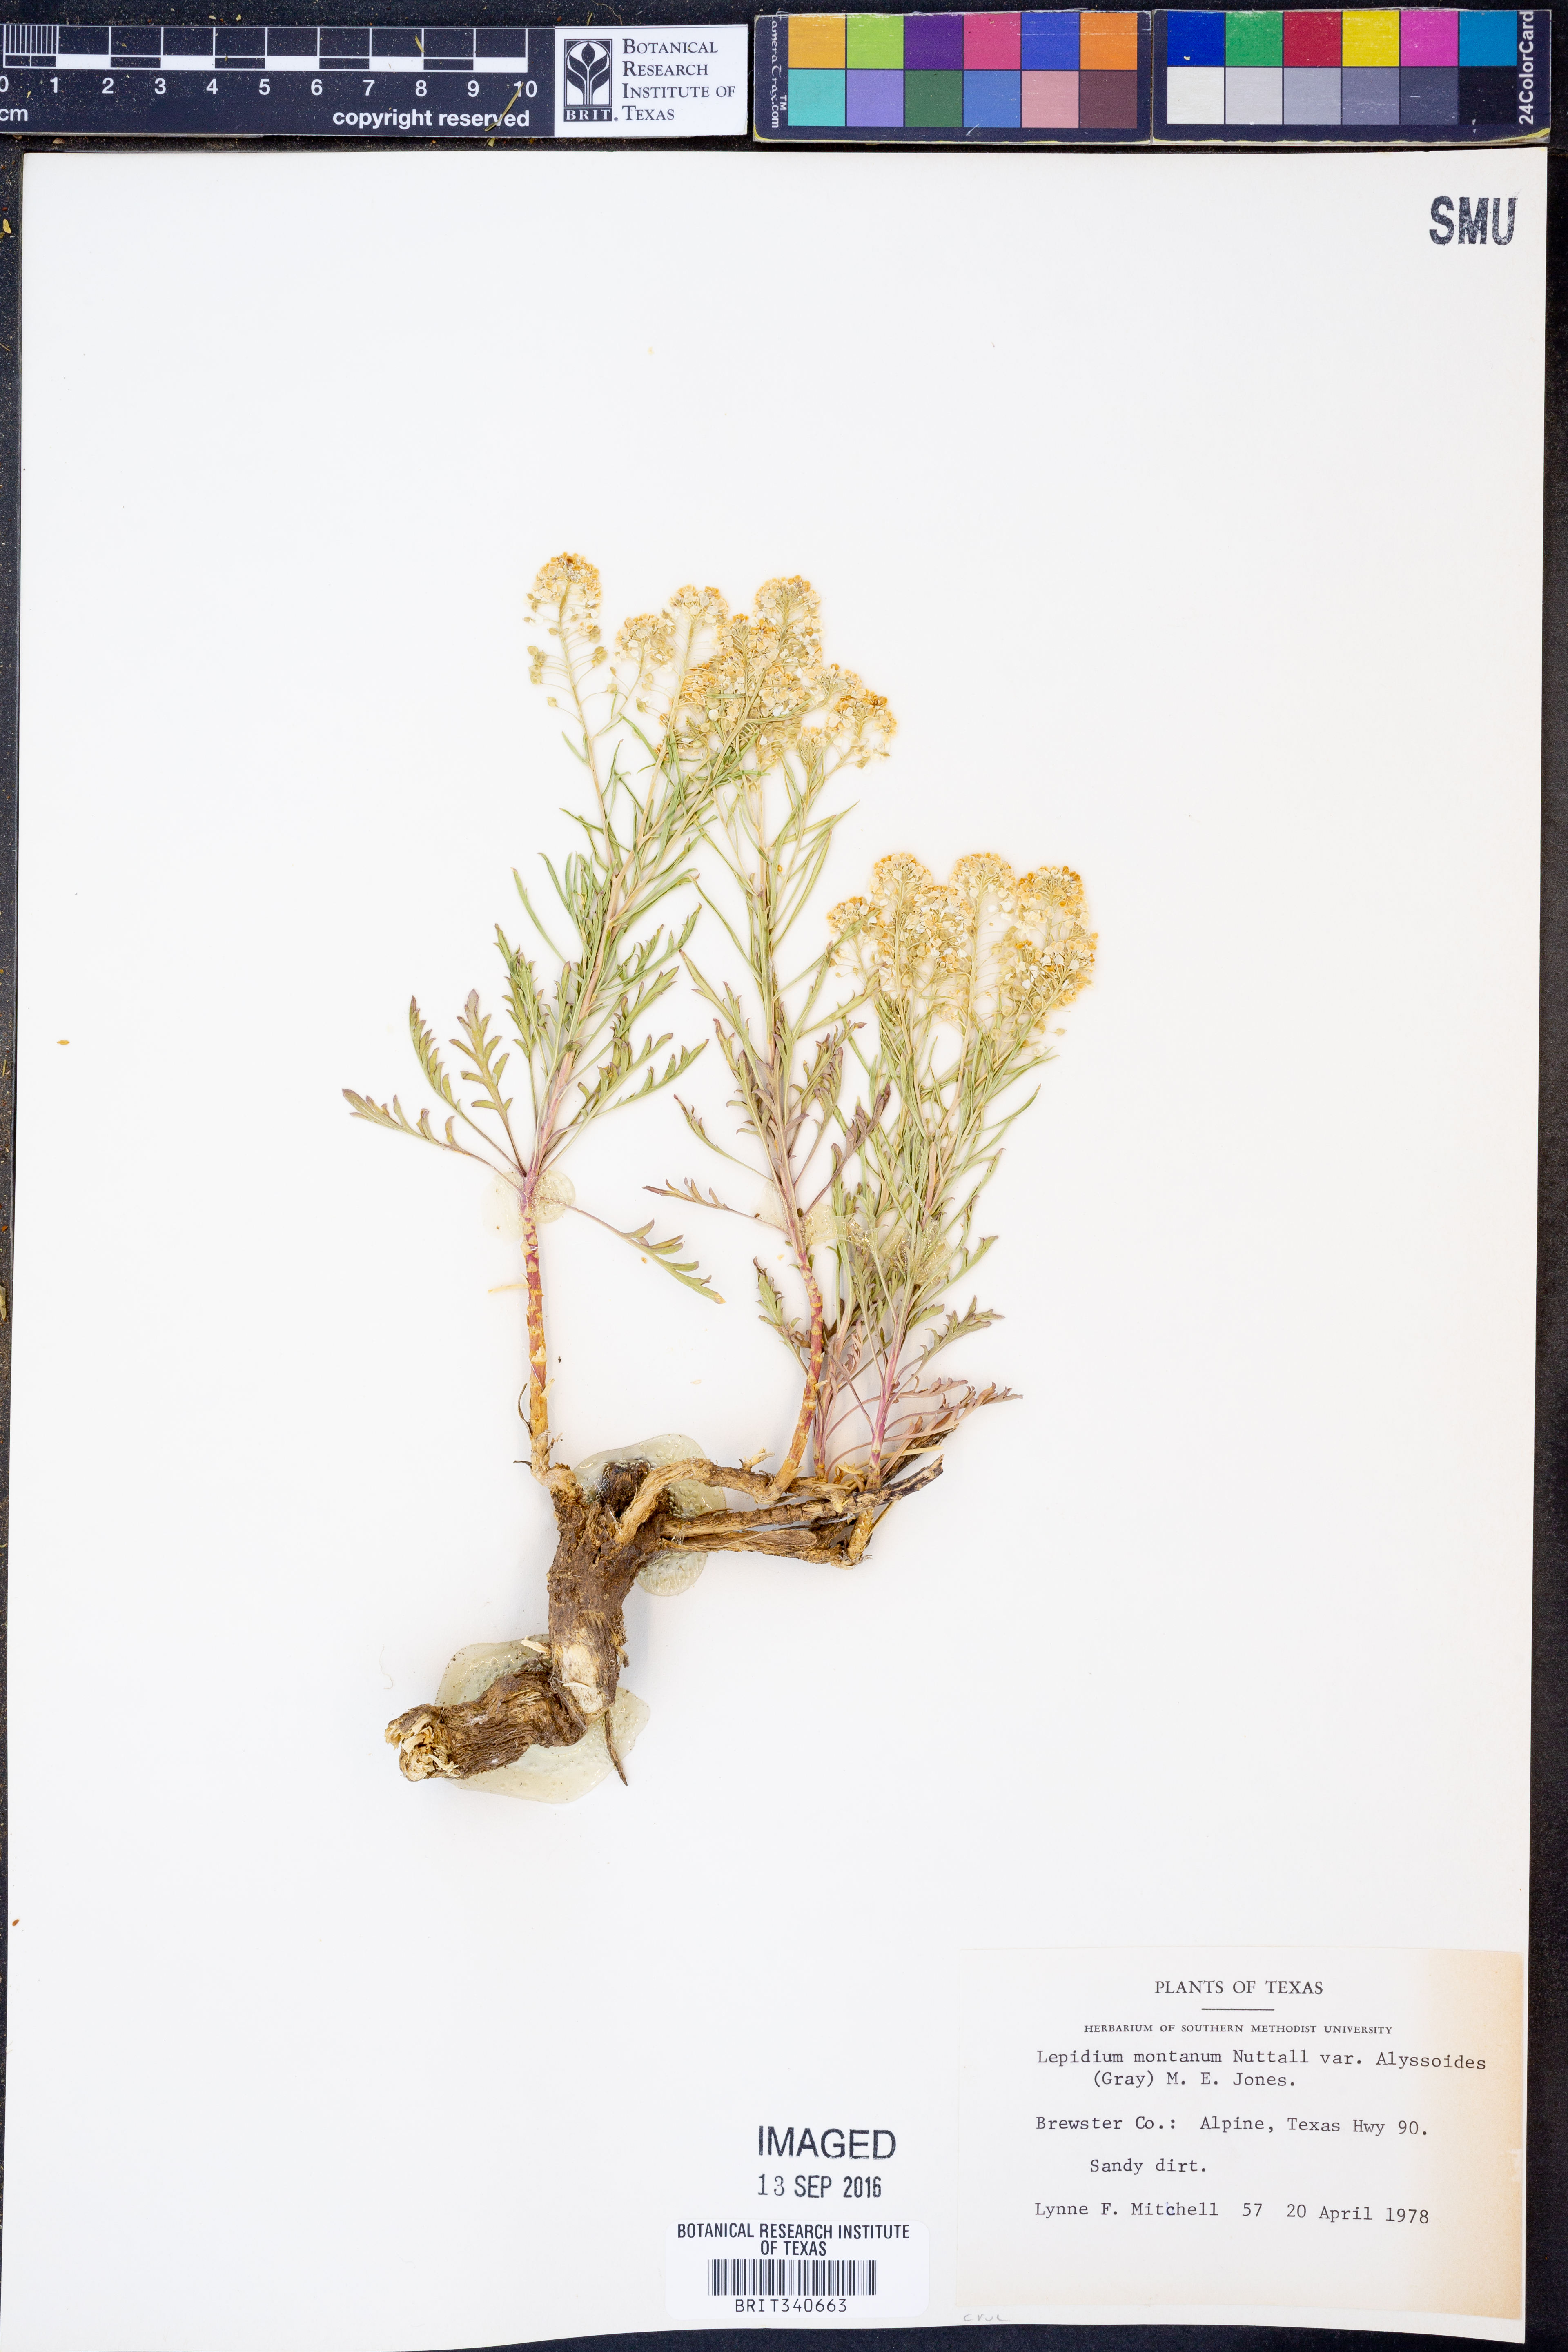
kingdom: Plantae
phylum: Tracheophyta
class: Magnoliopsida
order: Brassicales
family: Brassicaceae
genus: Lepidium
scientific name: Lepidium alyssoides
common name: Mesa pepperweed
